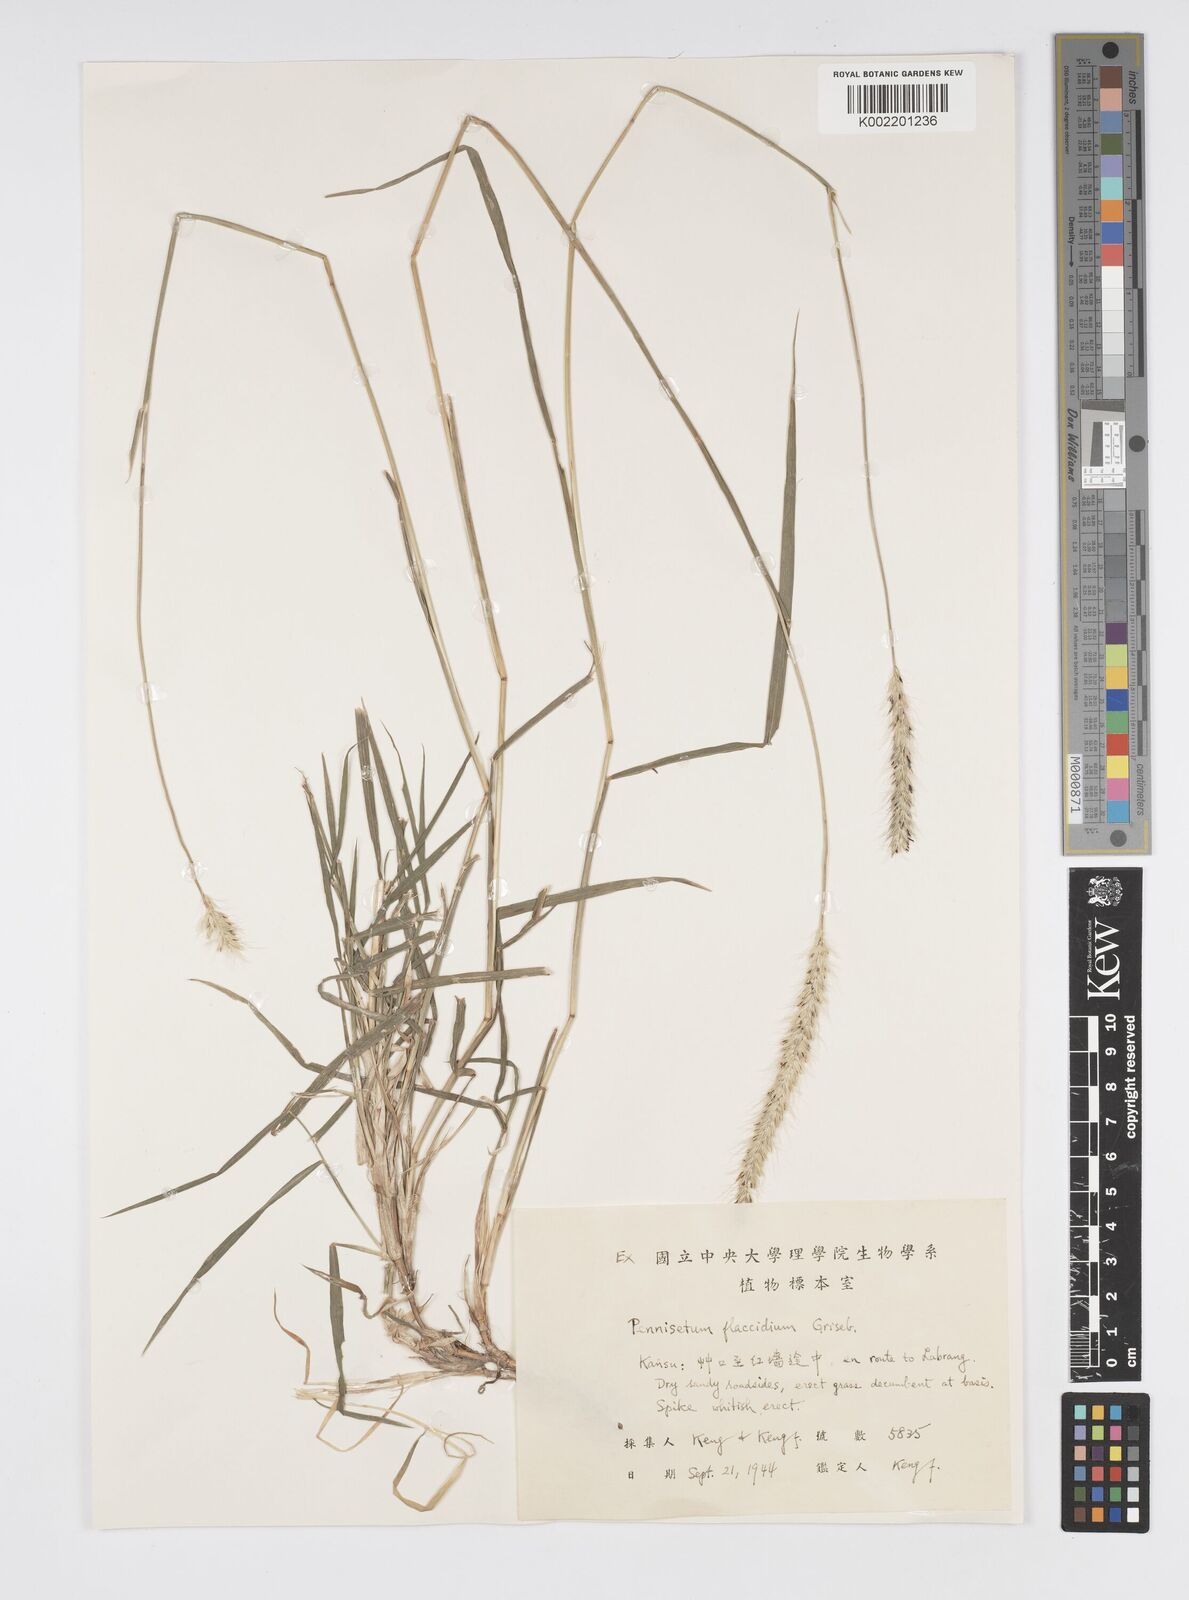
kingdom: Plantae
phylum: Tracheophyta
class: Liliopsida
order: Poales
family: Poaceae
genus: Cenchrus
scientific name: Cenchrus flaccidus
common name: Flaccid grass
